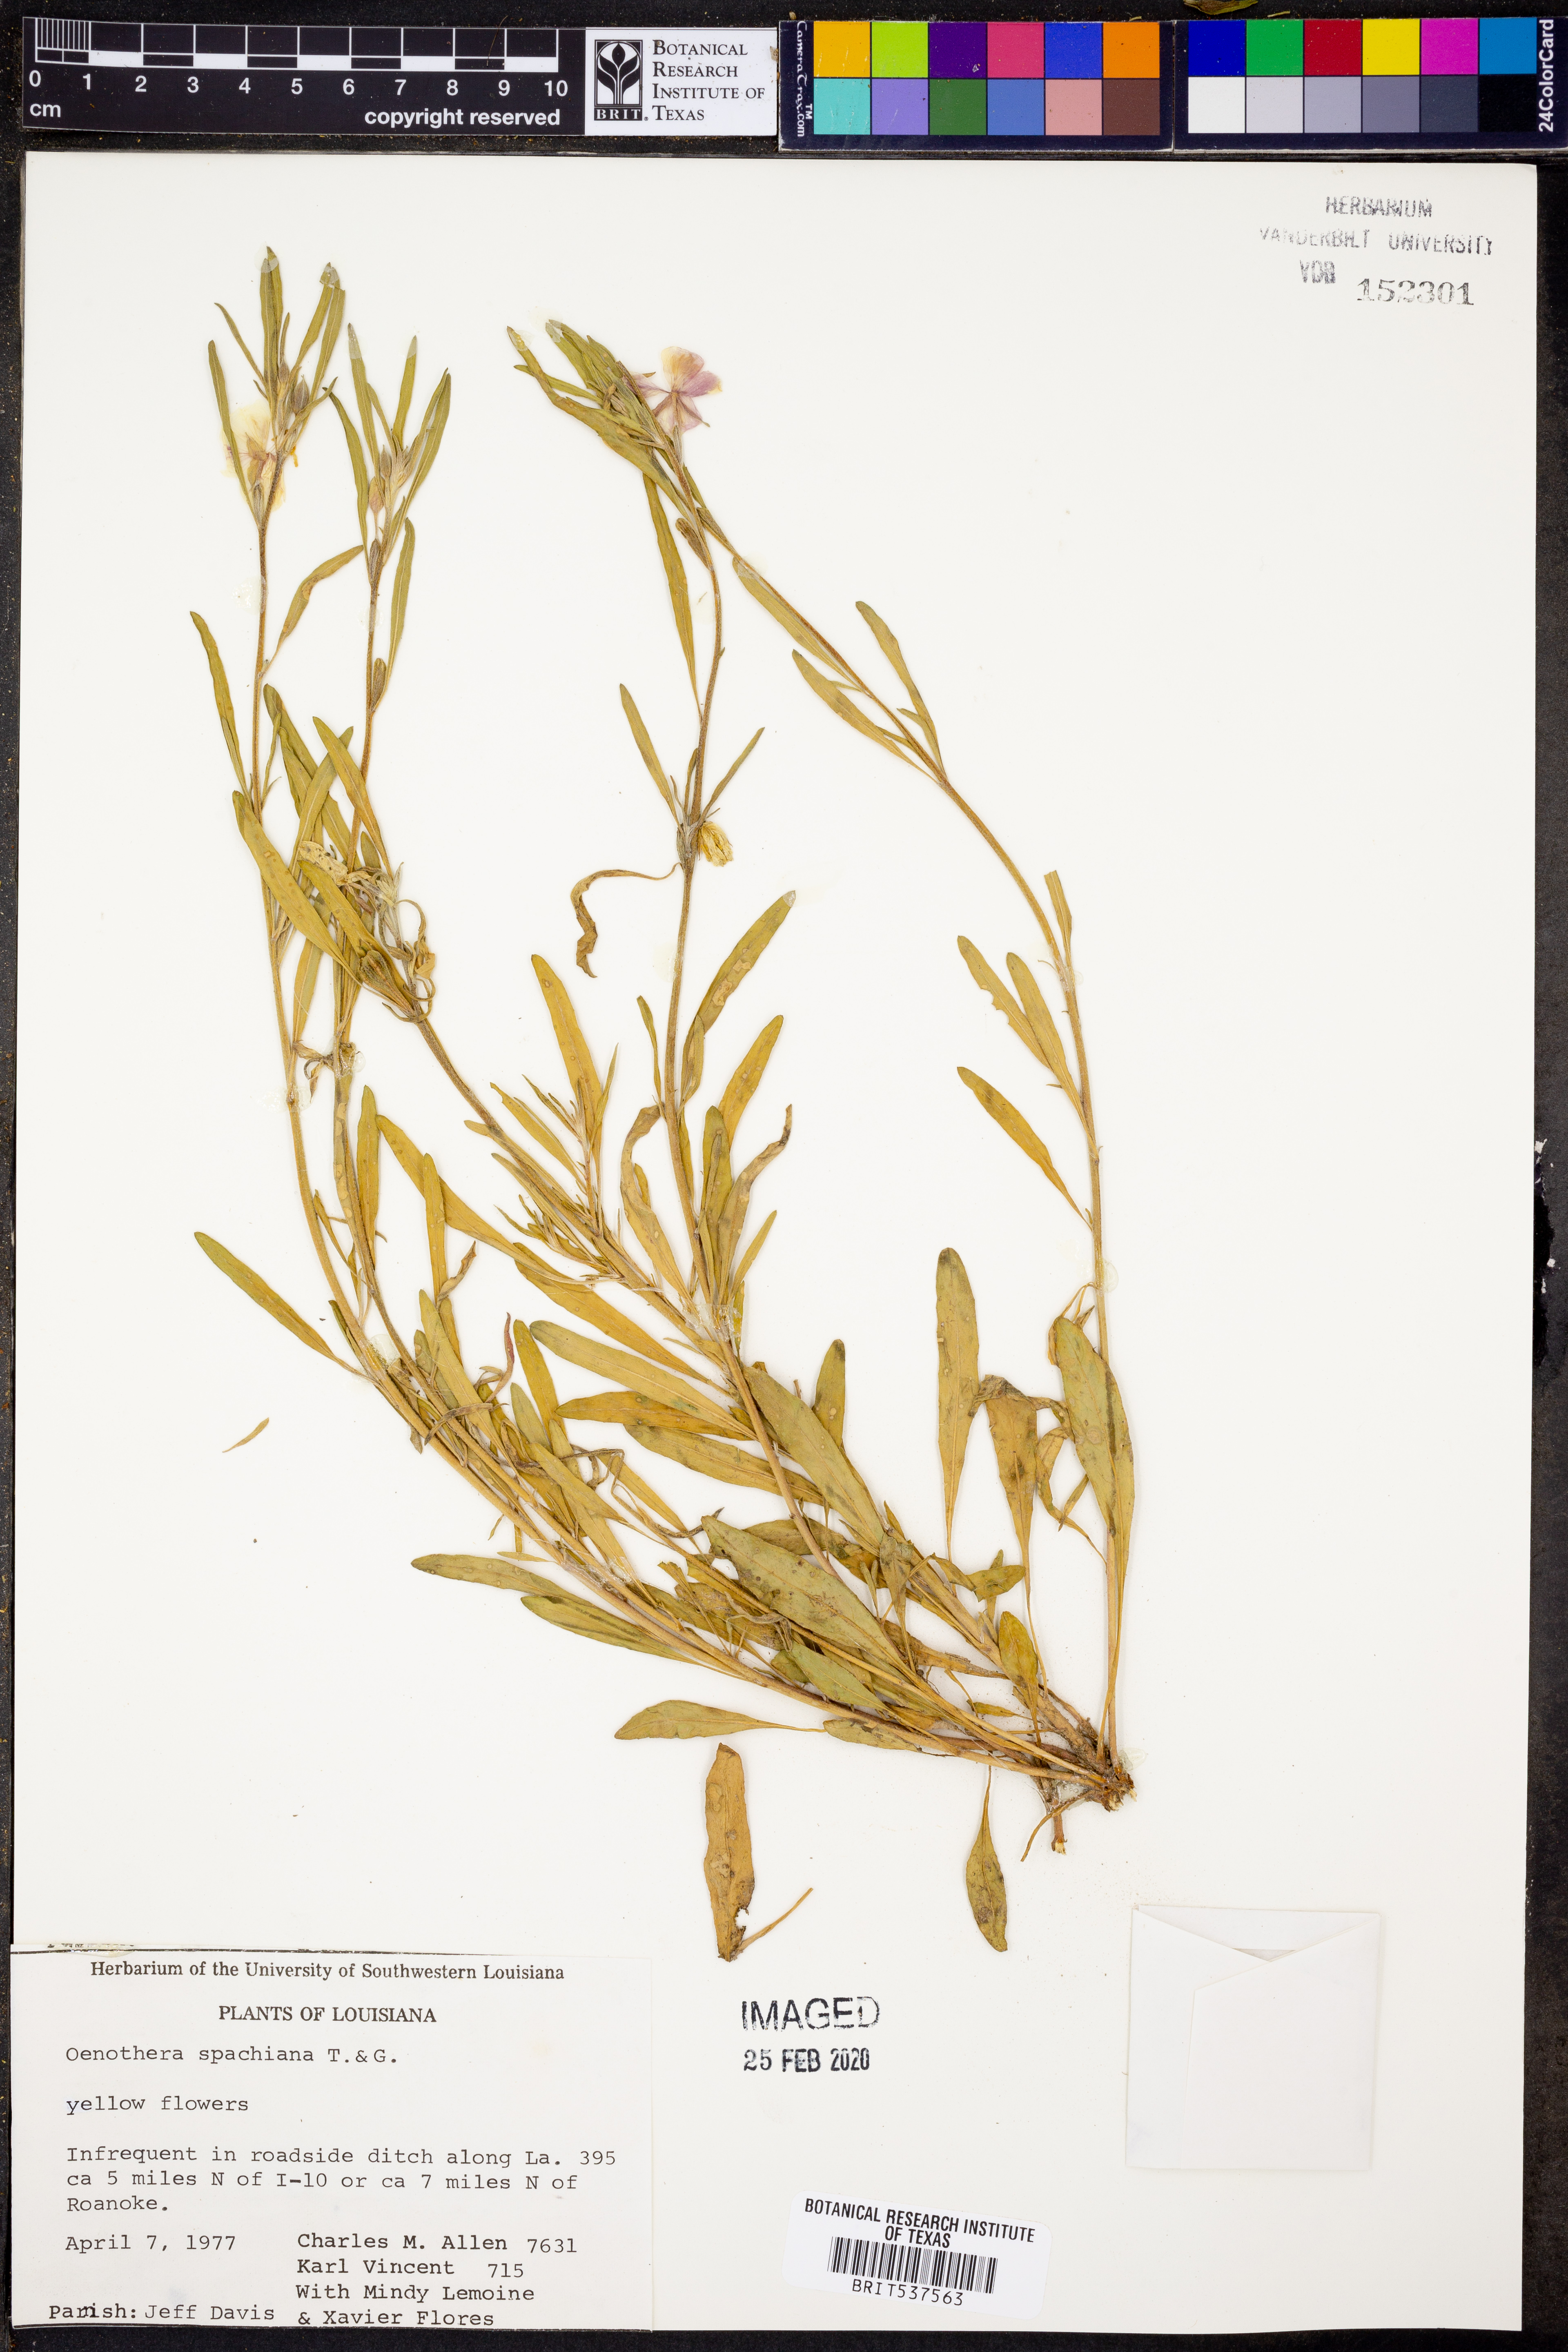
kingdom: Plantae
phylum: Tracheophyta
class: Magnoliopsida
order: Myrtales
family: Onagraceae
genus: Oenothera
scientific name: Oenothera spachiana
